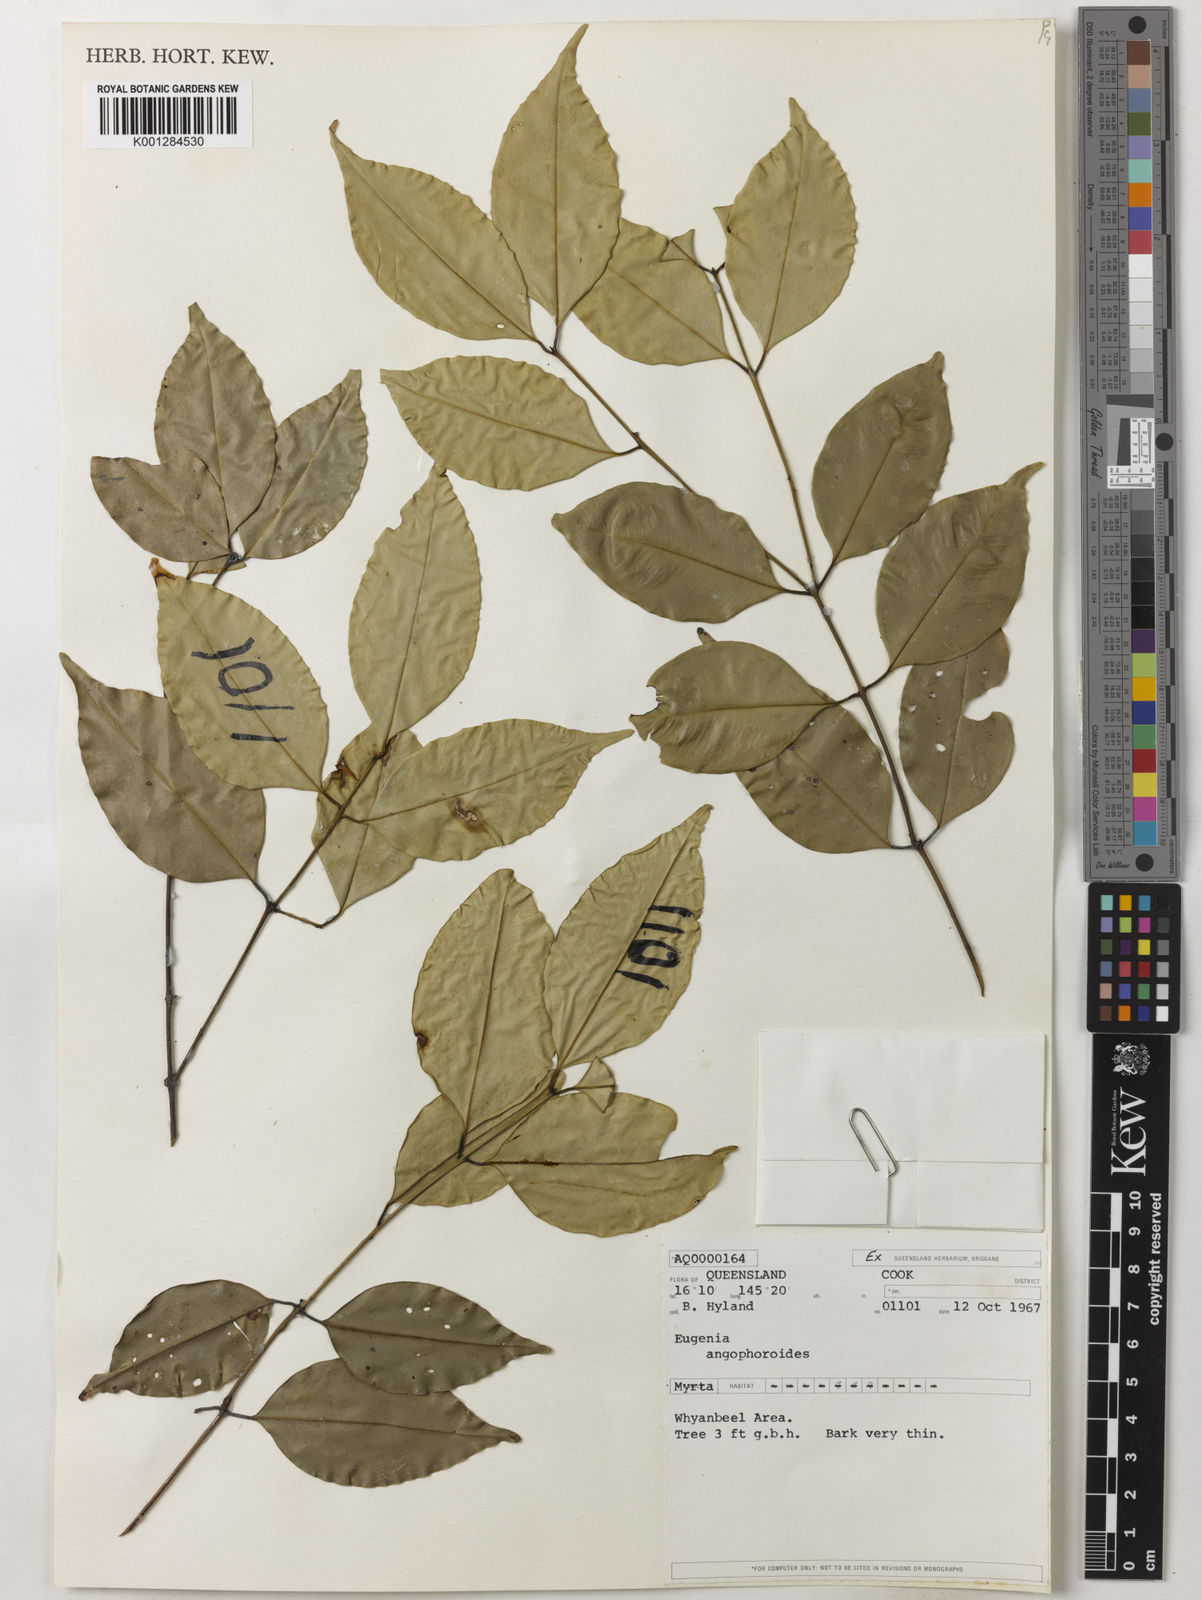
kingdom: Plantae
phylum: Tracheophyta
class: Magnoliopsida
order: Myrtales
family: Myrtaceae
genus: Syzygium
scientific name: Syzygium unipunctatum
